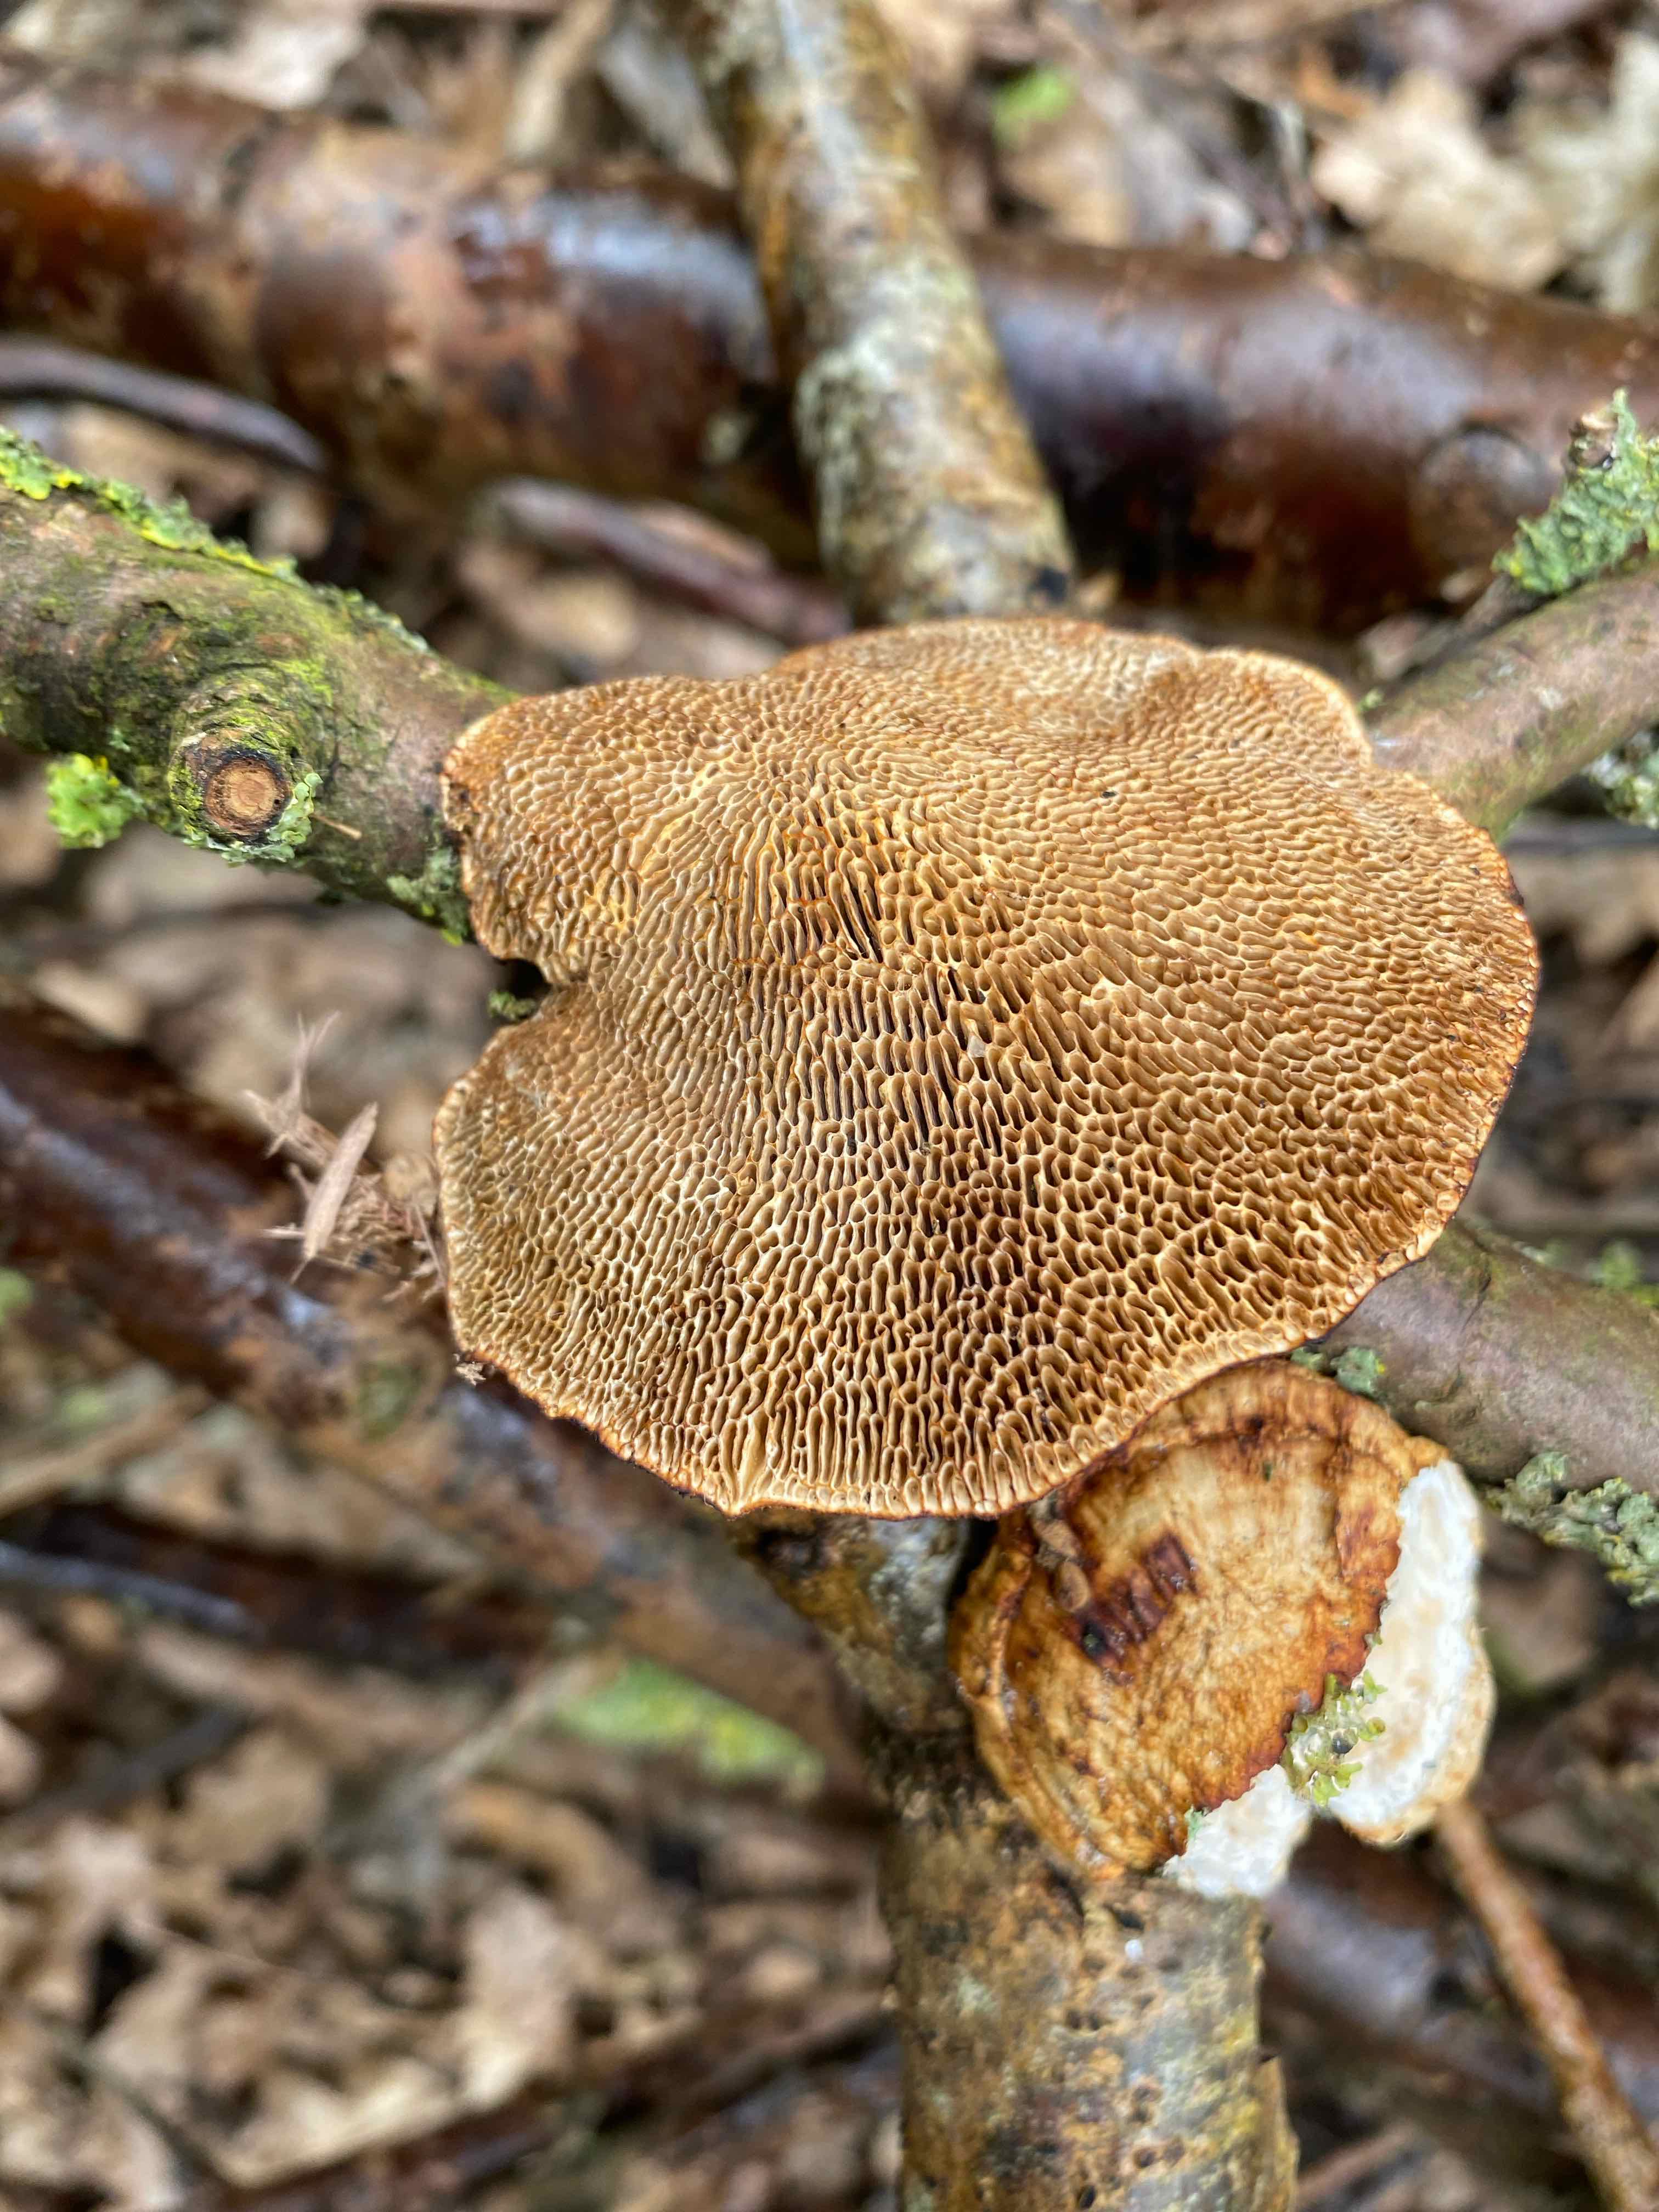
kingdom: Fungi
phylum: Basidiomycota
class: Agaricomycetes
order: Polyporales
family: Polyporaceae
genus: Daedaleopsis
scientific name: Daedaleopsis confragosa
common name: rødmende læderporesvamp
